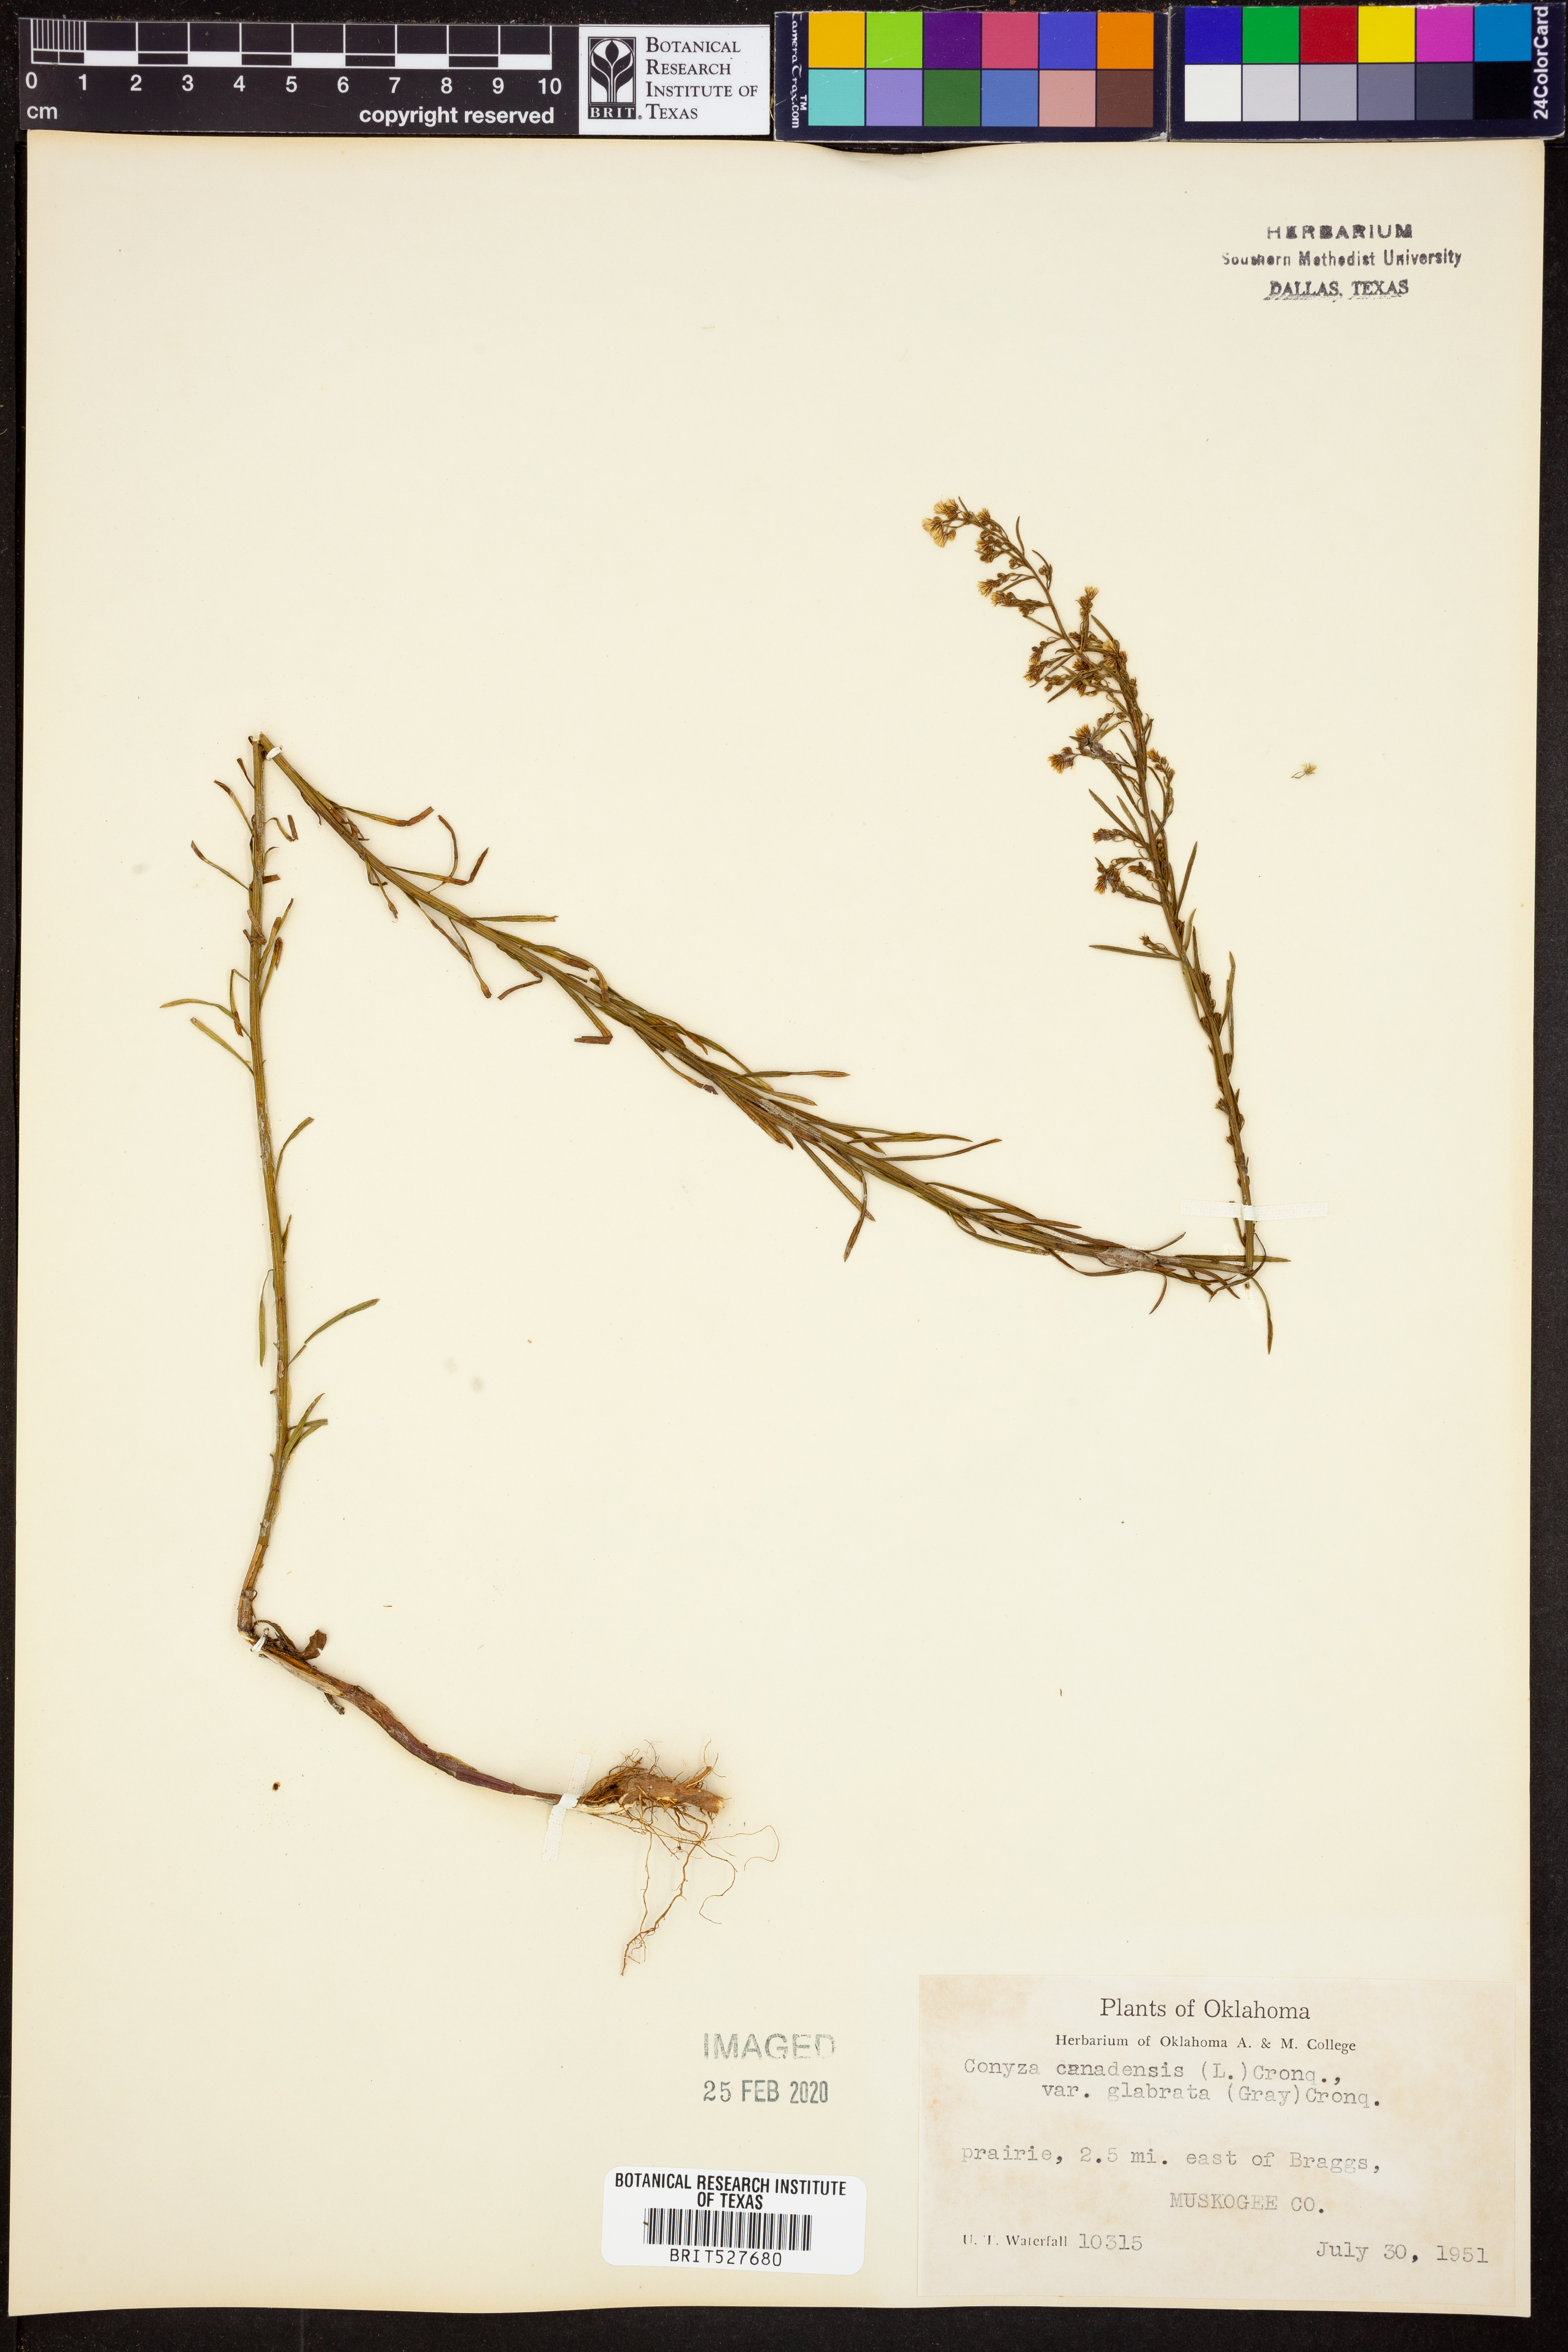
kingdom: Plantae
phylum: Tracheophyta
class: Magnoliopsida
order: Asterales
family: Asteraceae
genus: Erigeron
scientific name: Erigeron canadensis
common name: Canadian fleabane
